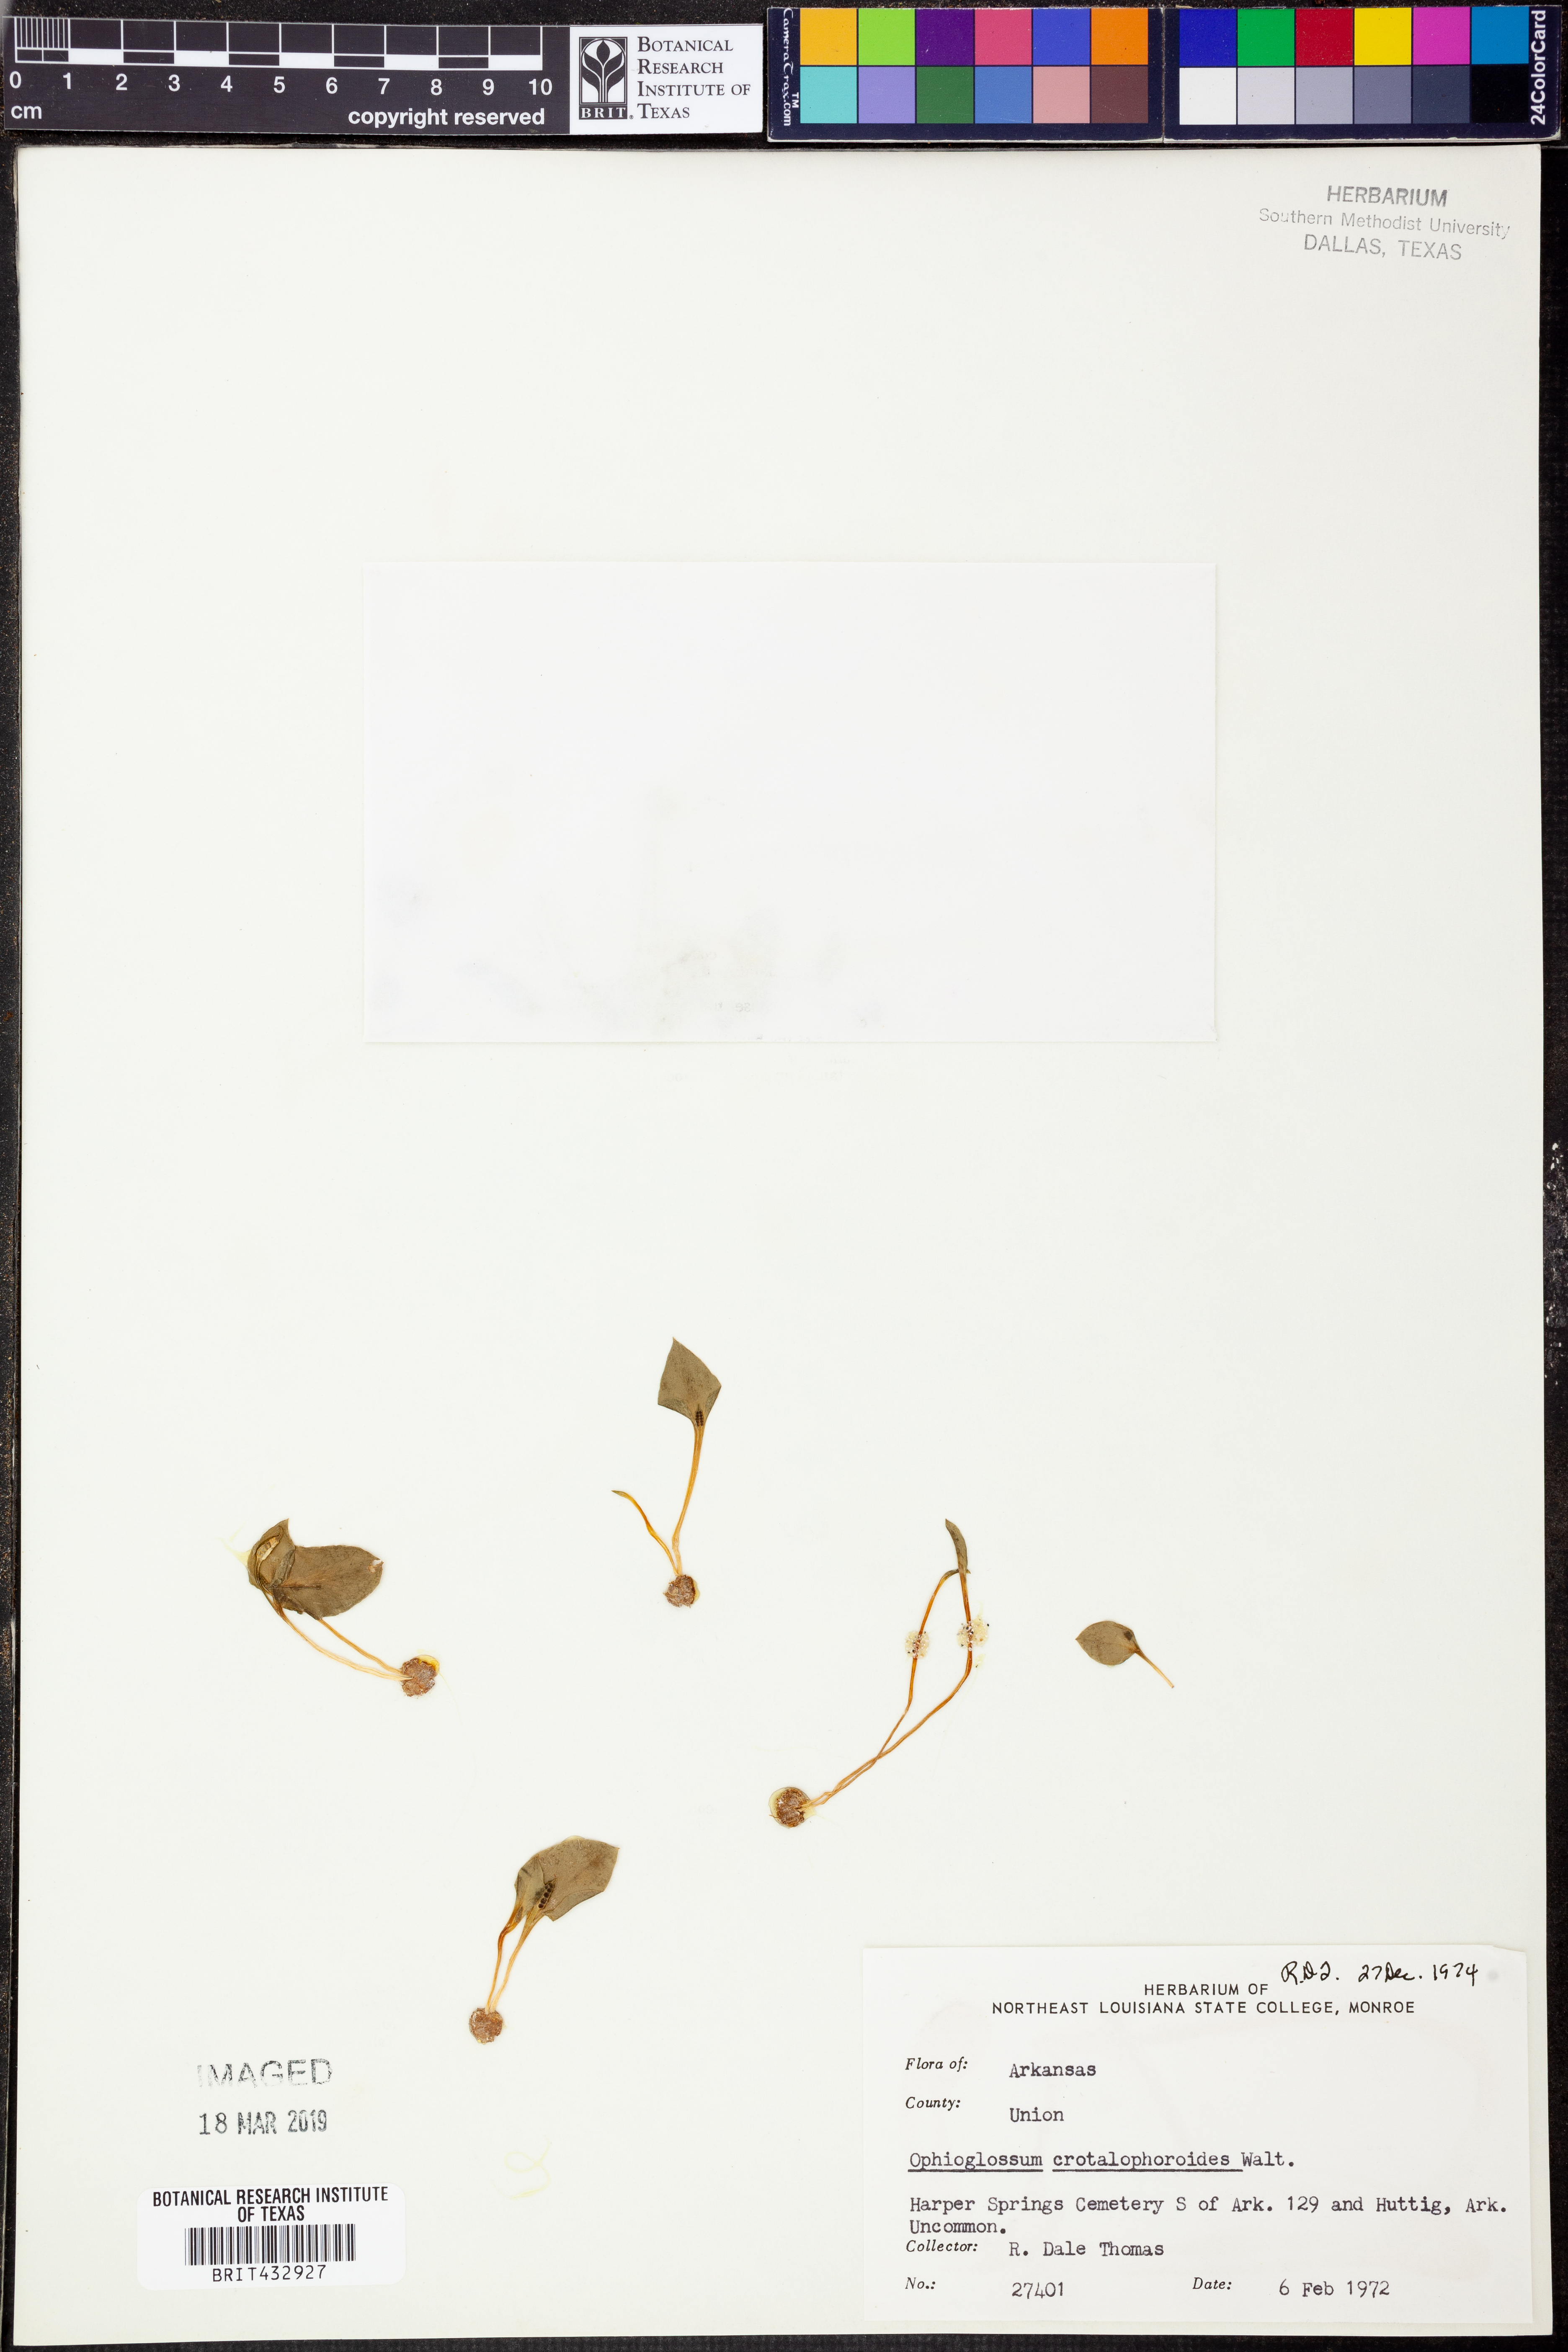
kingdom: Plantae
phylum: Tracheophyta
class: Polypodiopsida
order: Ophioglossales
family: Ophioglossaceae
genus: Ophioglossum
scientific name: Ophioglossum crotalophoroides
